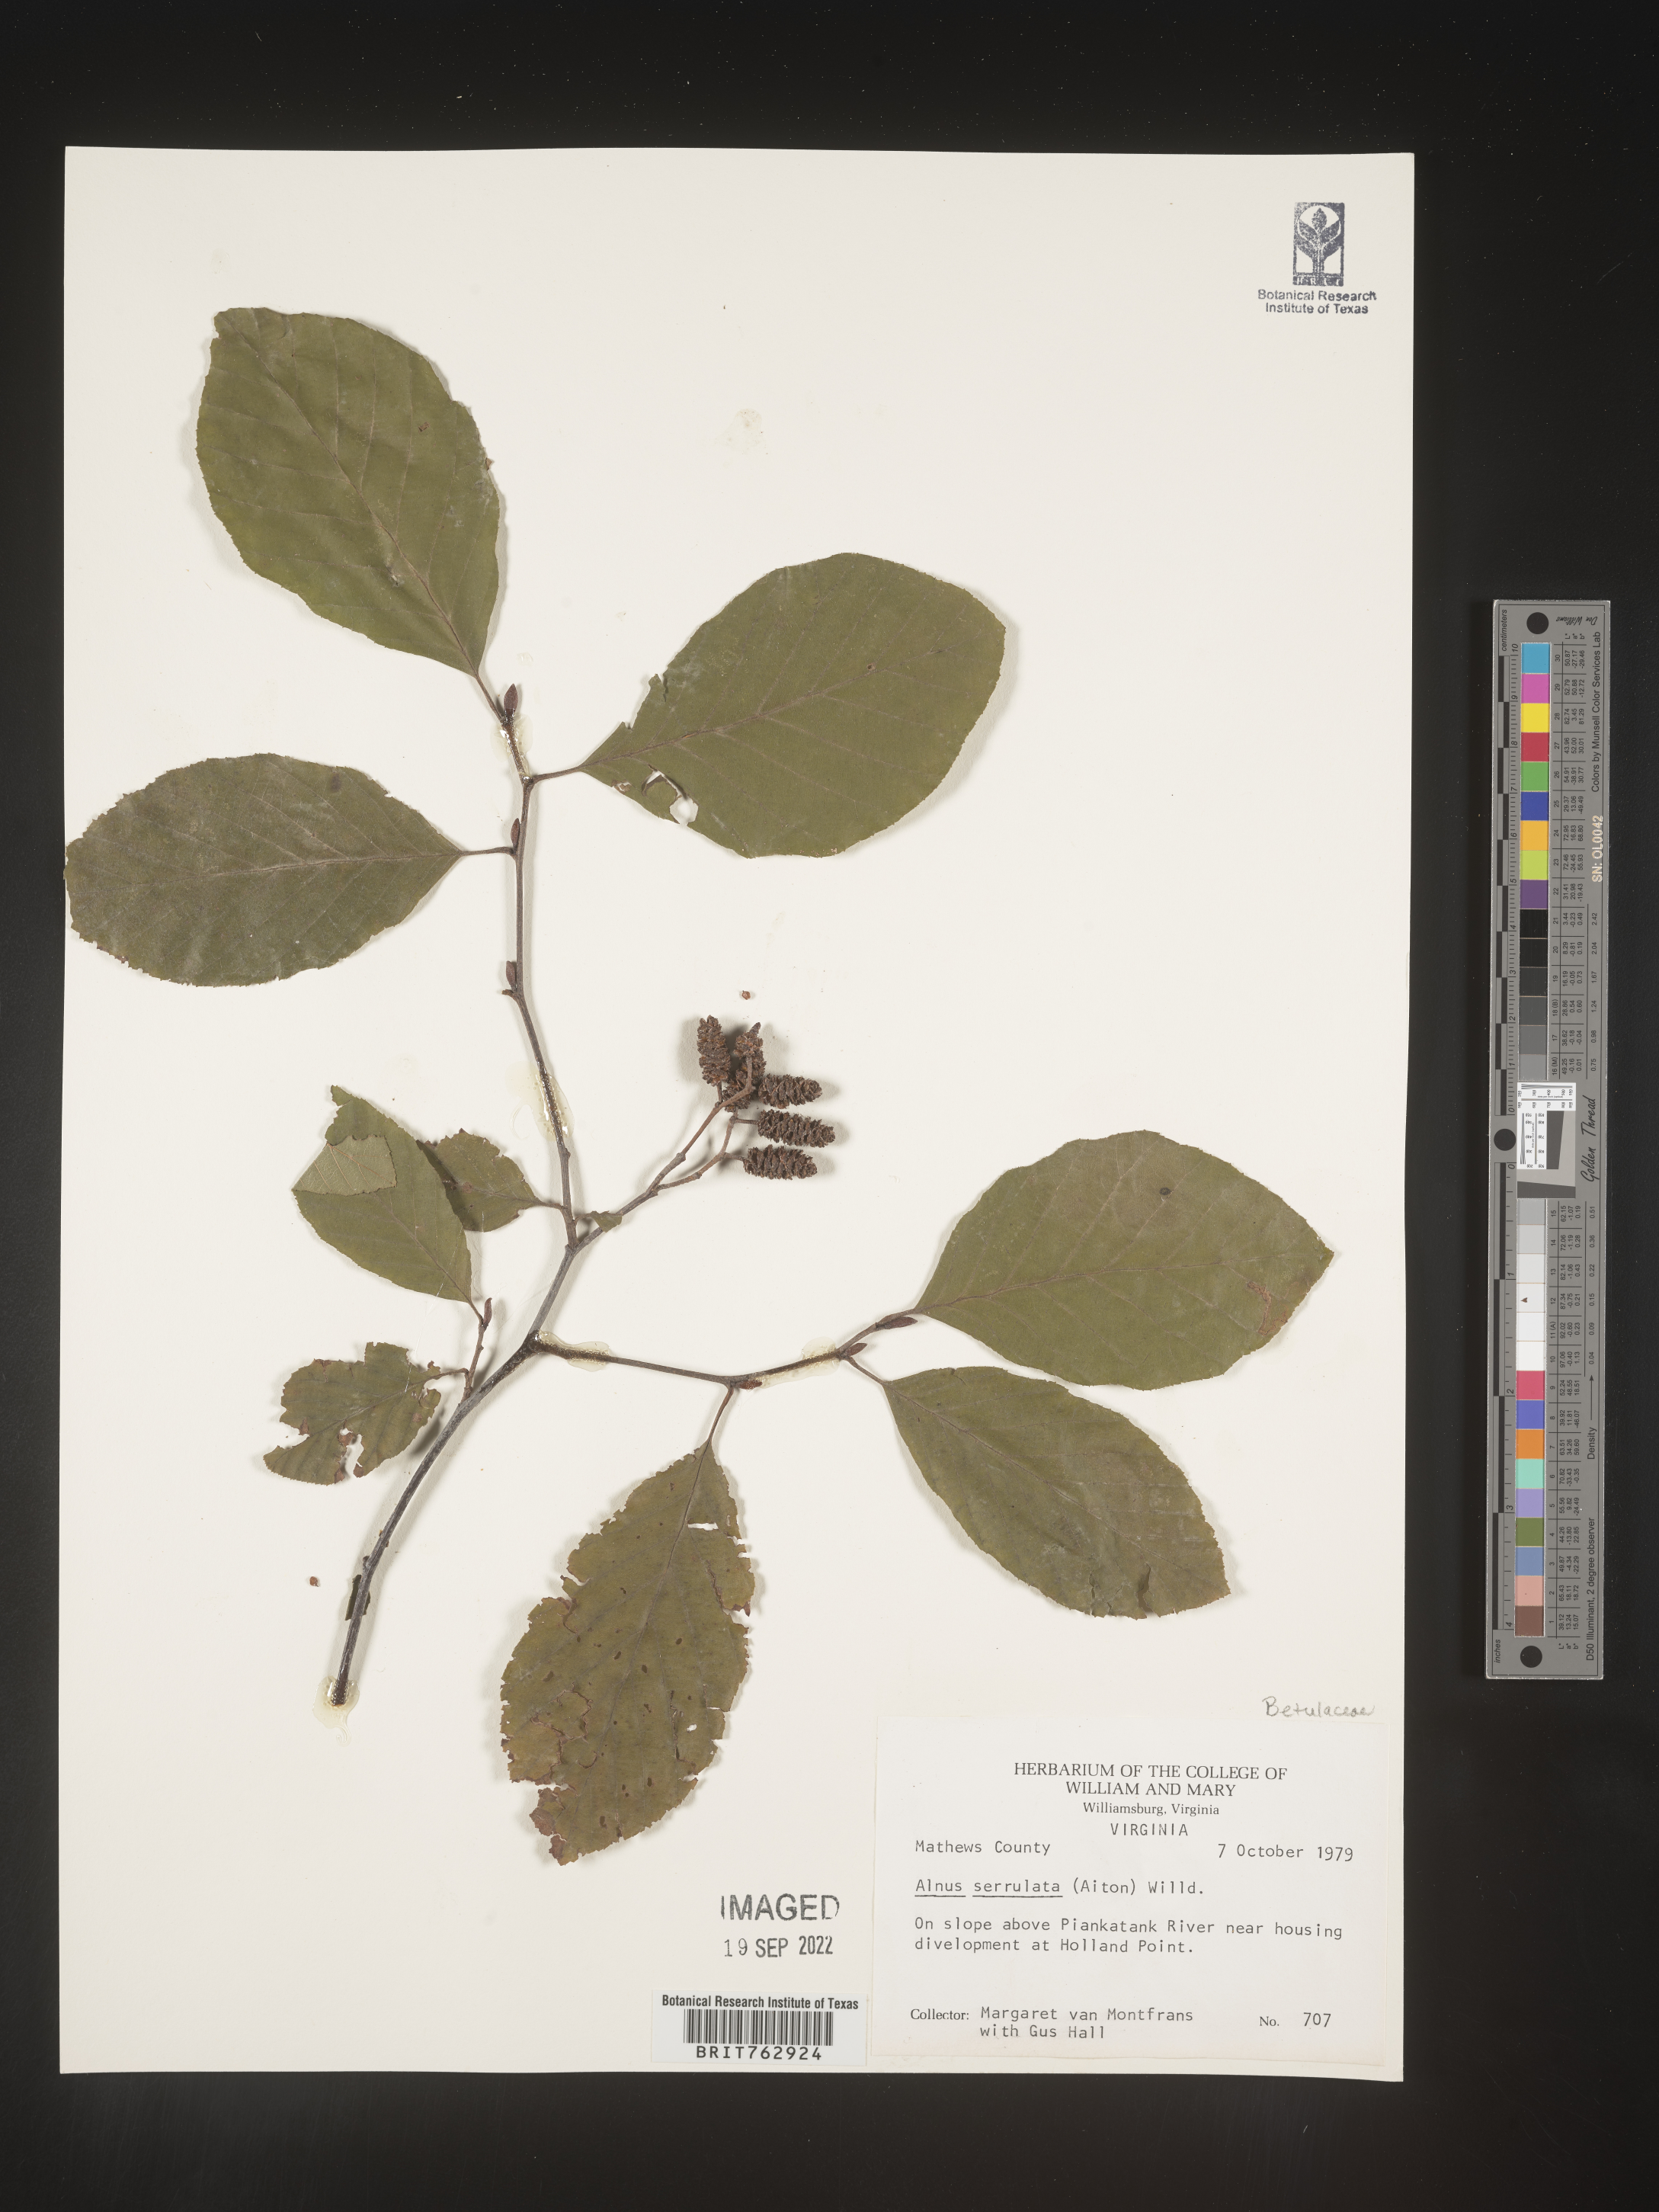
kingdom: Plantae
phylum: Tracheophyta
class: Magnoliopsida
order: Fagales
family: Betulaceae
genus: Alnus
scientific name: Alnus serrulata
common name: Hazel alder
